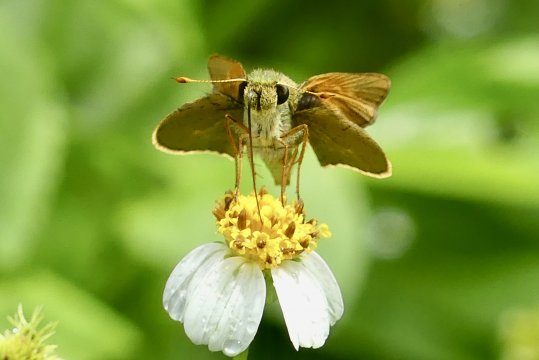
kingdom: Animalia
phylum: Arthropoda
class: Insecta
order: Lepidoptera
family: Hesperiidae
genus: Choranthus
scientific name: Choranthus haitensis
